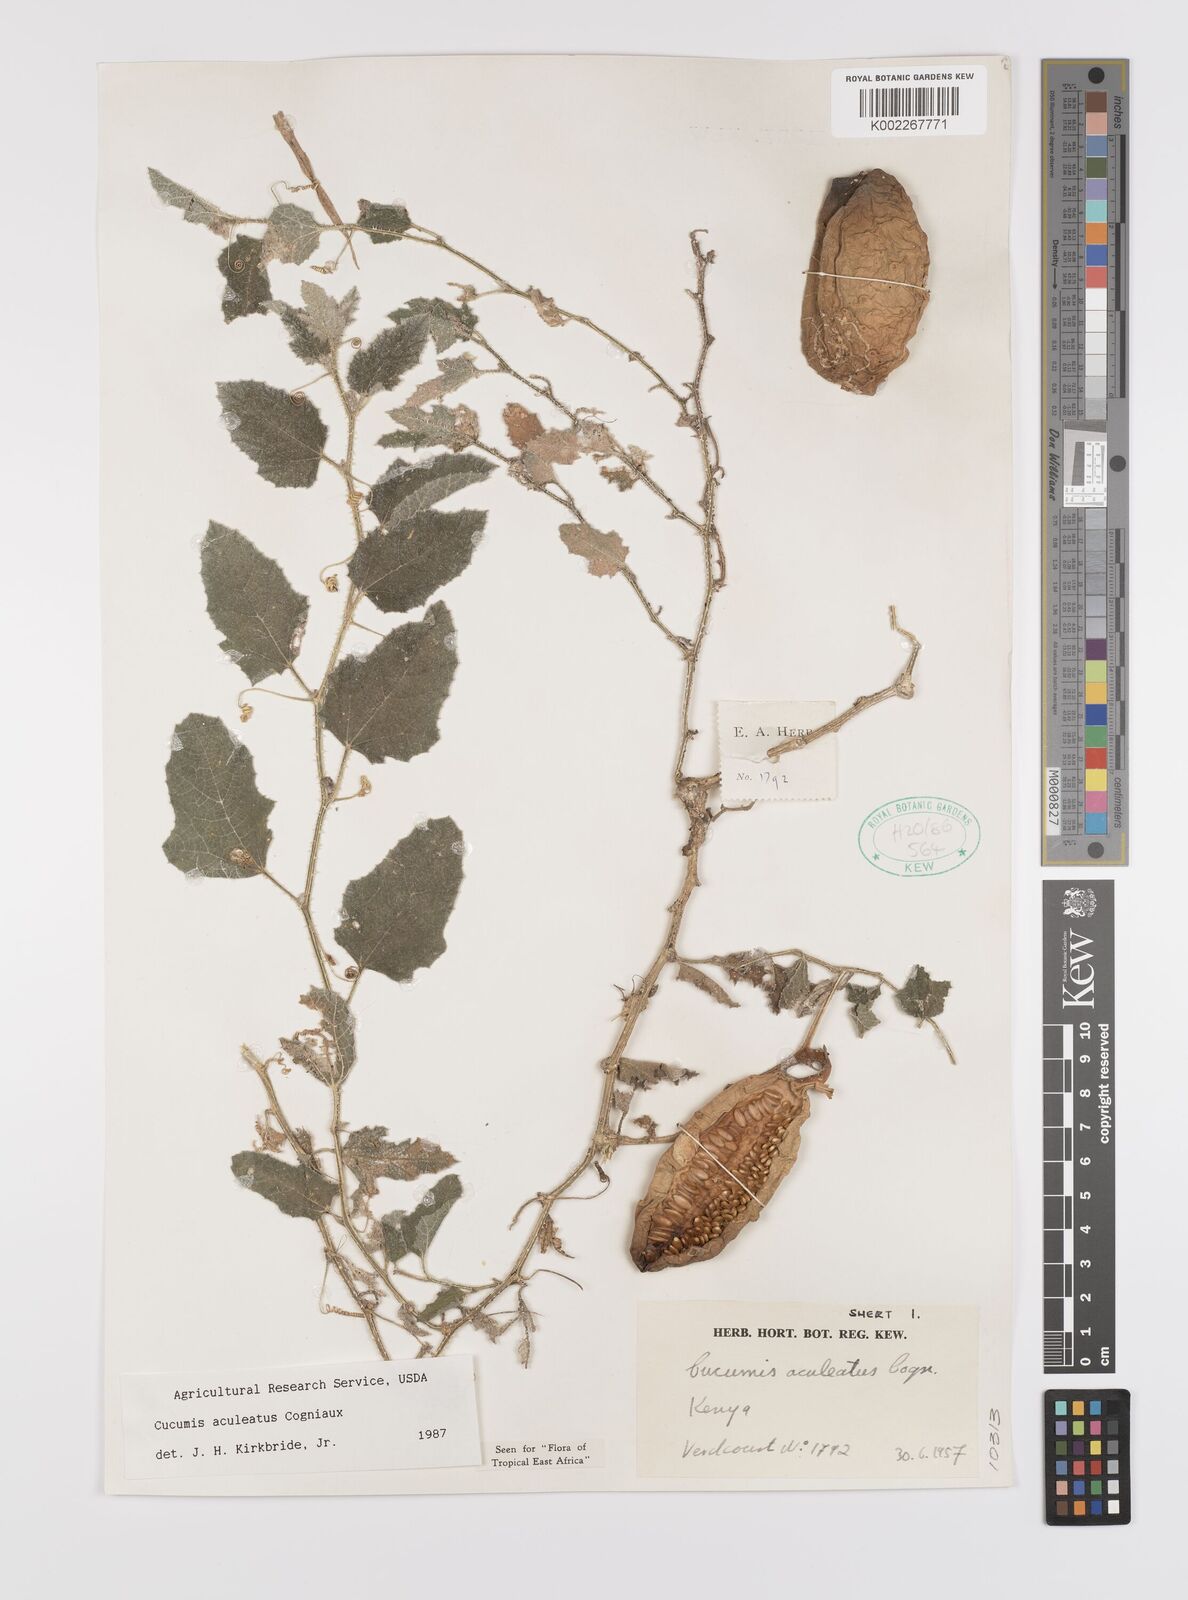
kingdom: Plantae
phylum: Tracheophyta
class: Magnoliopsida
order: Cucurbitales
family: Cucurbitaceae
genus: Cucumis
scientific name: Cucumis aculeatus
